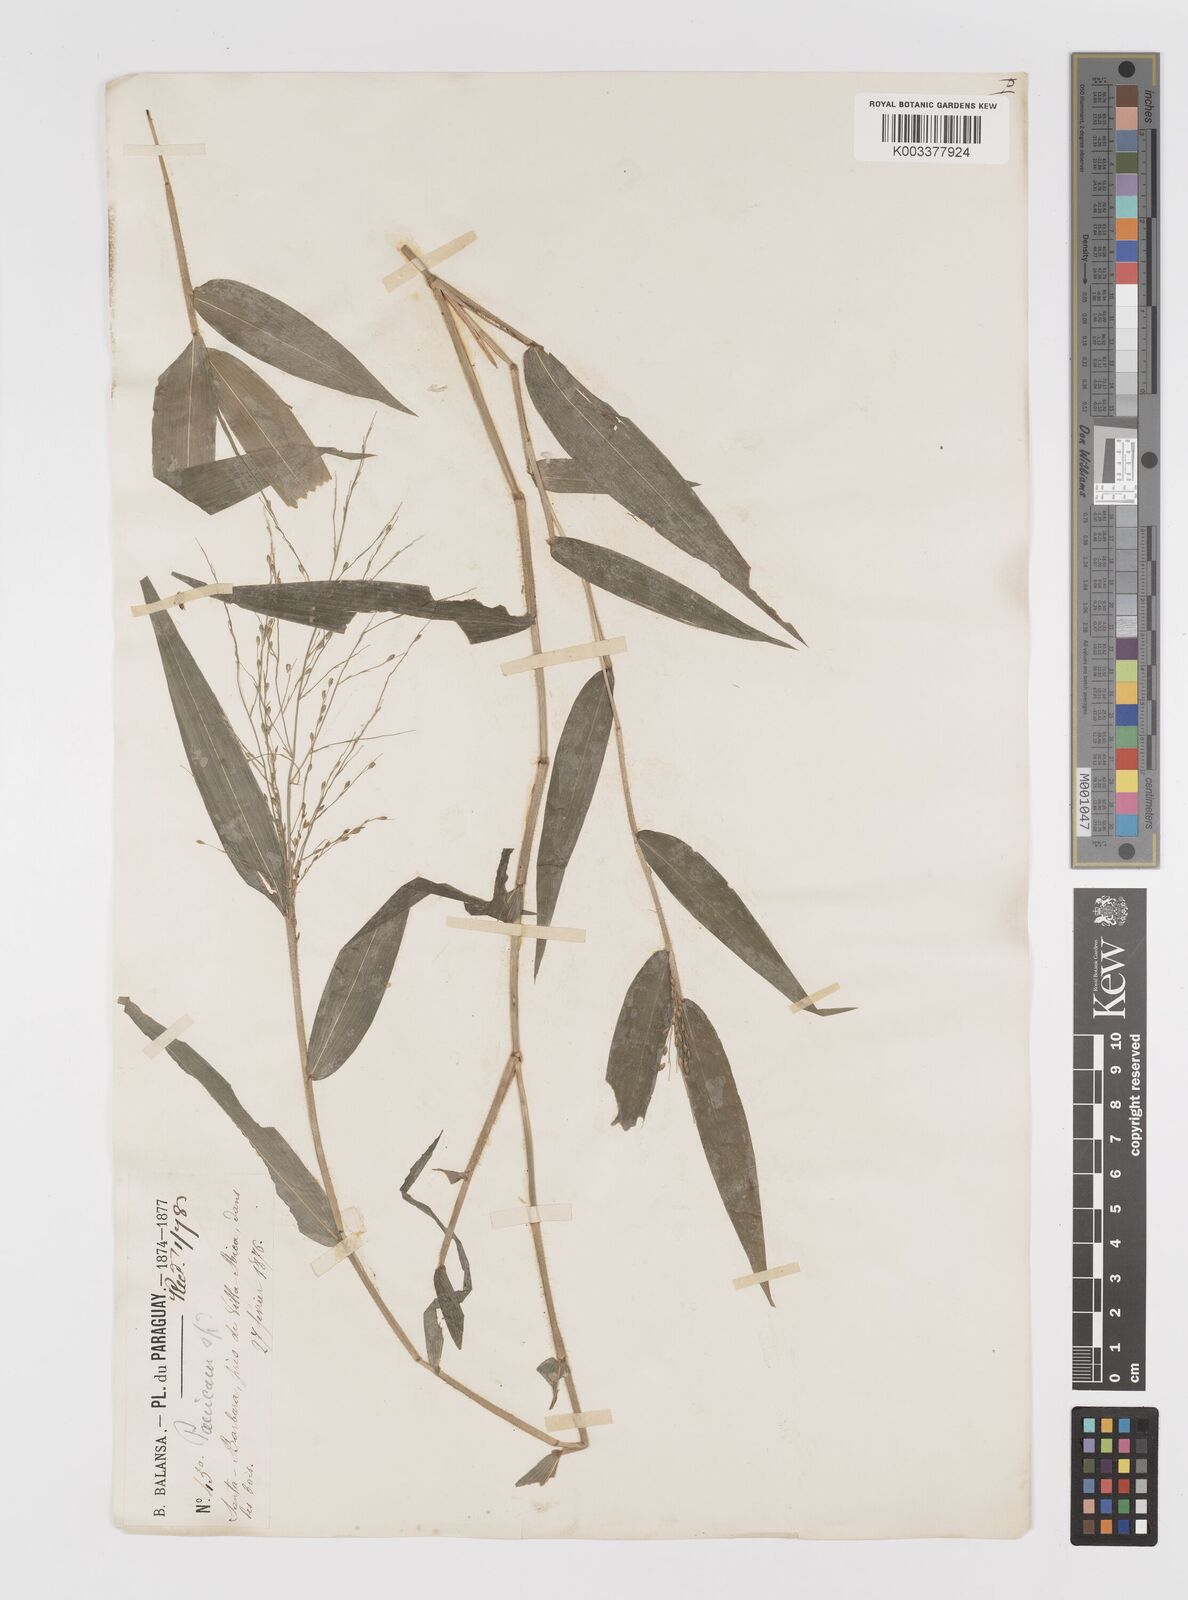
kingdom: Plantae
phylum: Tracheophyta
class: Liliopsida
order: Poales
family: Poaceae
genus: Parodiophyllochloa
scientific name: Parodiophyllochloa ovulifera
